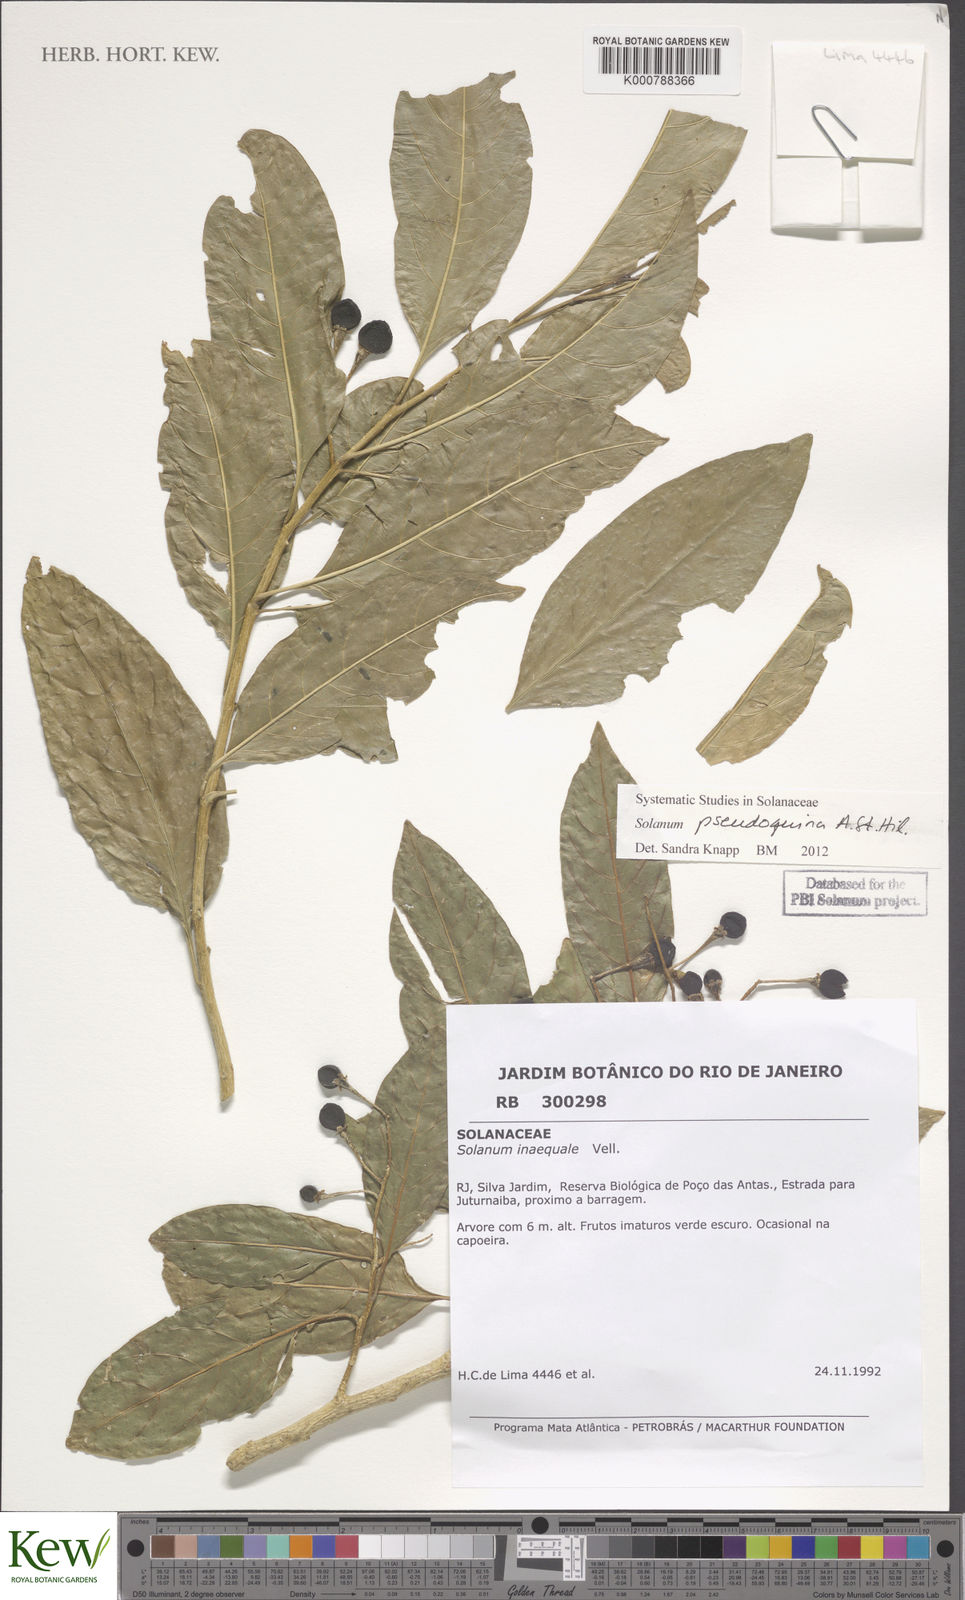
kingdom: Plantae
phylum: Tracheophyta
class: Magnoliopsida
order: Solanales
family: Solanaceae
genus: Solanum
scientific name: Solanum pseudoquina
